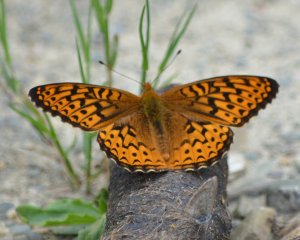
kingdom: Animalia
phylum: Arthropoda
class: Insecta
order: Lepidoptera
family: Nymphalidae
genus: Speyeria
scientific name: Speyeria atlantis
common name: Atlantis Fritillary
